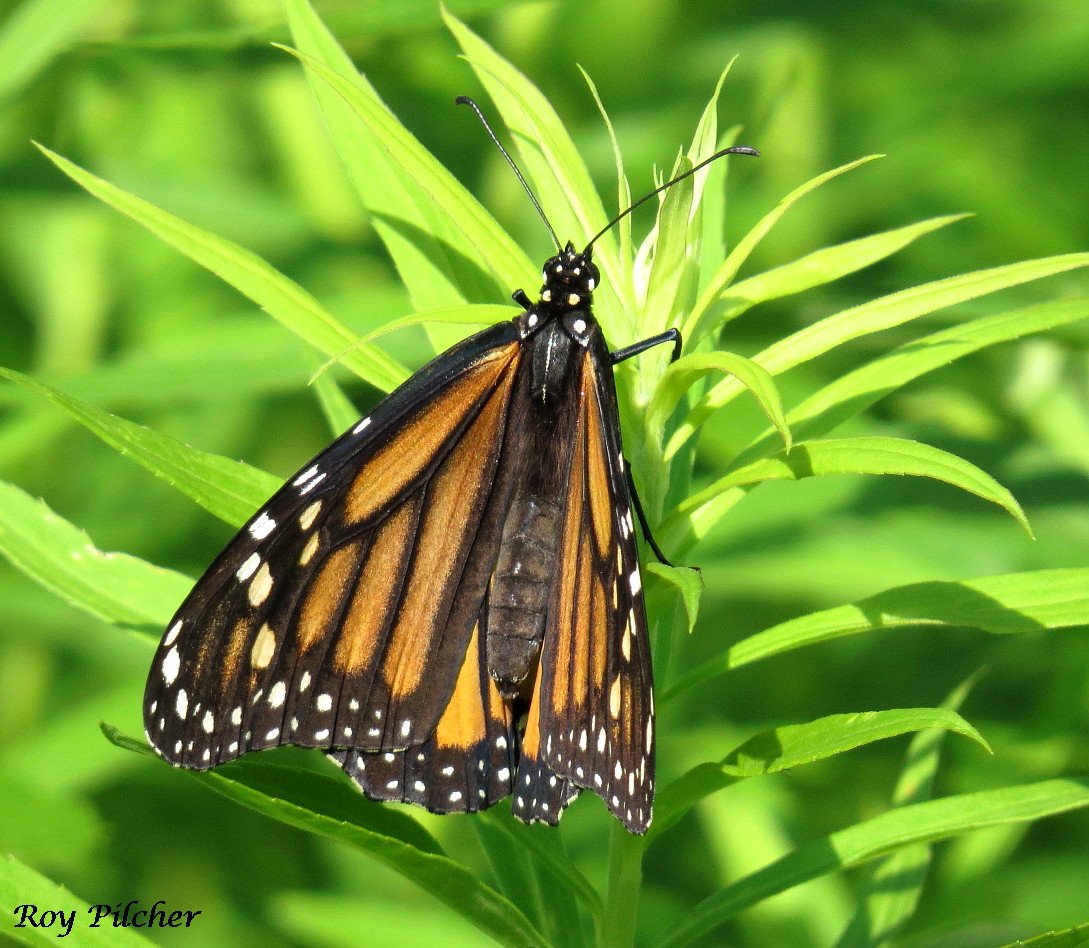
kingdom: Animalia
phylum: Arthropoda
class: Insecta
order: Lepidoptera
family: Nymphalidae
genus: Danaus
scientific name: Danaus plexippus
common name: Monarch
